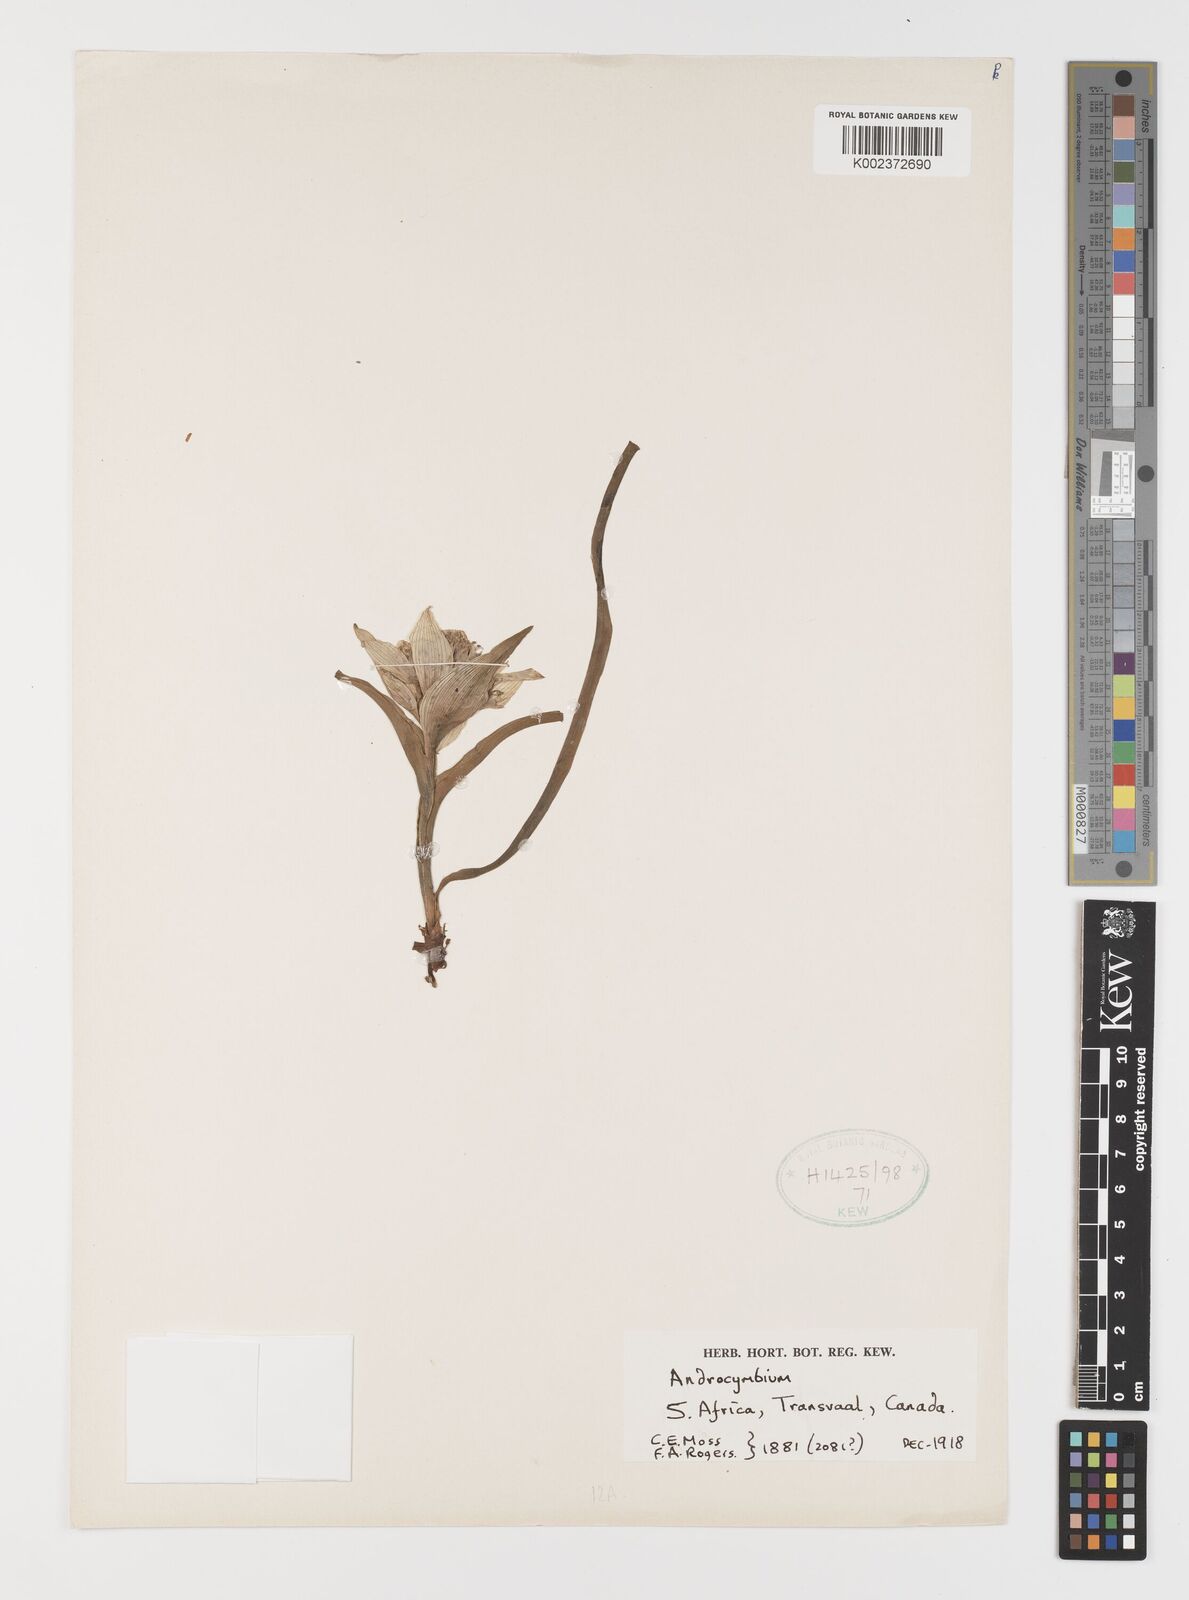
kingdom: Plantae
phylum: Tracheophyta
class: Liliopsida
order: Liliales
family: Colchicaceae
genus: Colchicum
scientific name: Colchicum
